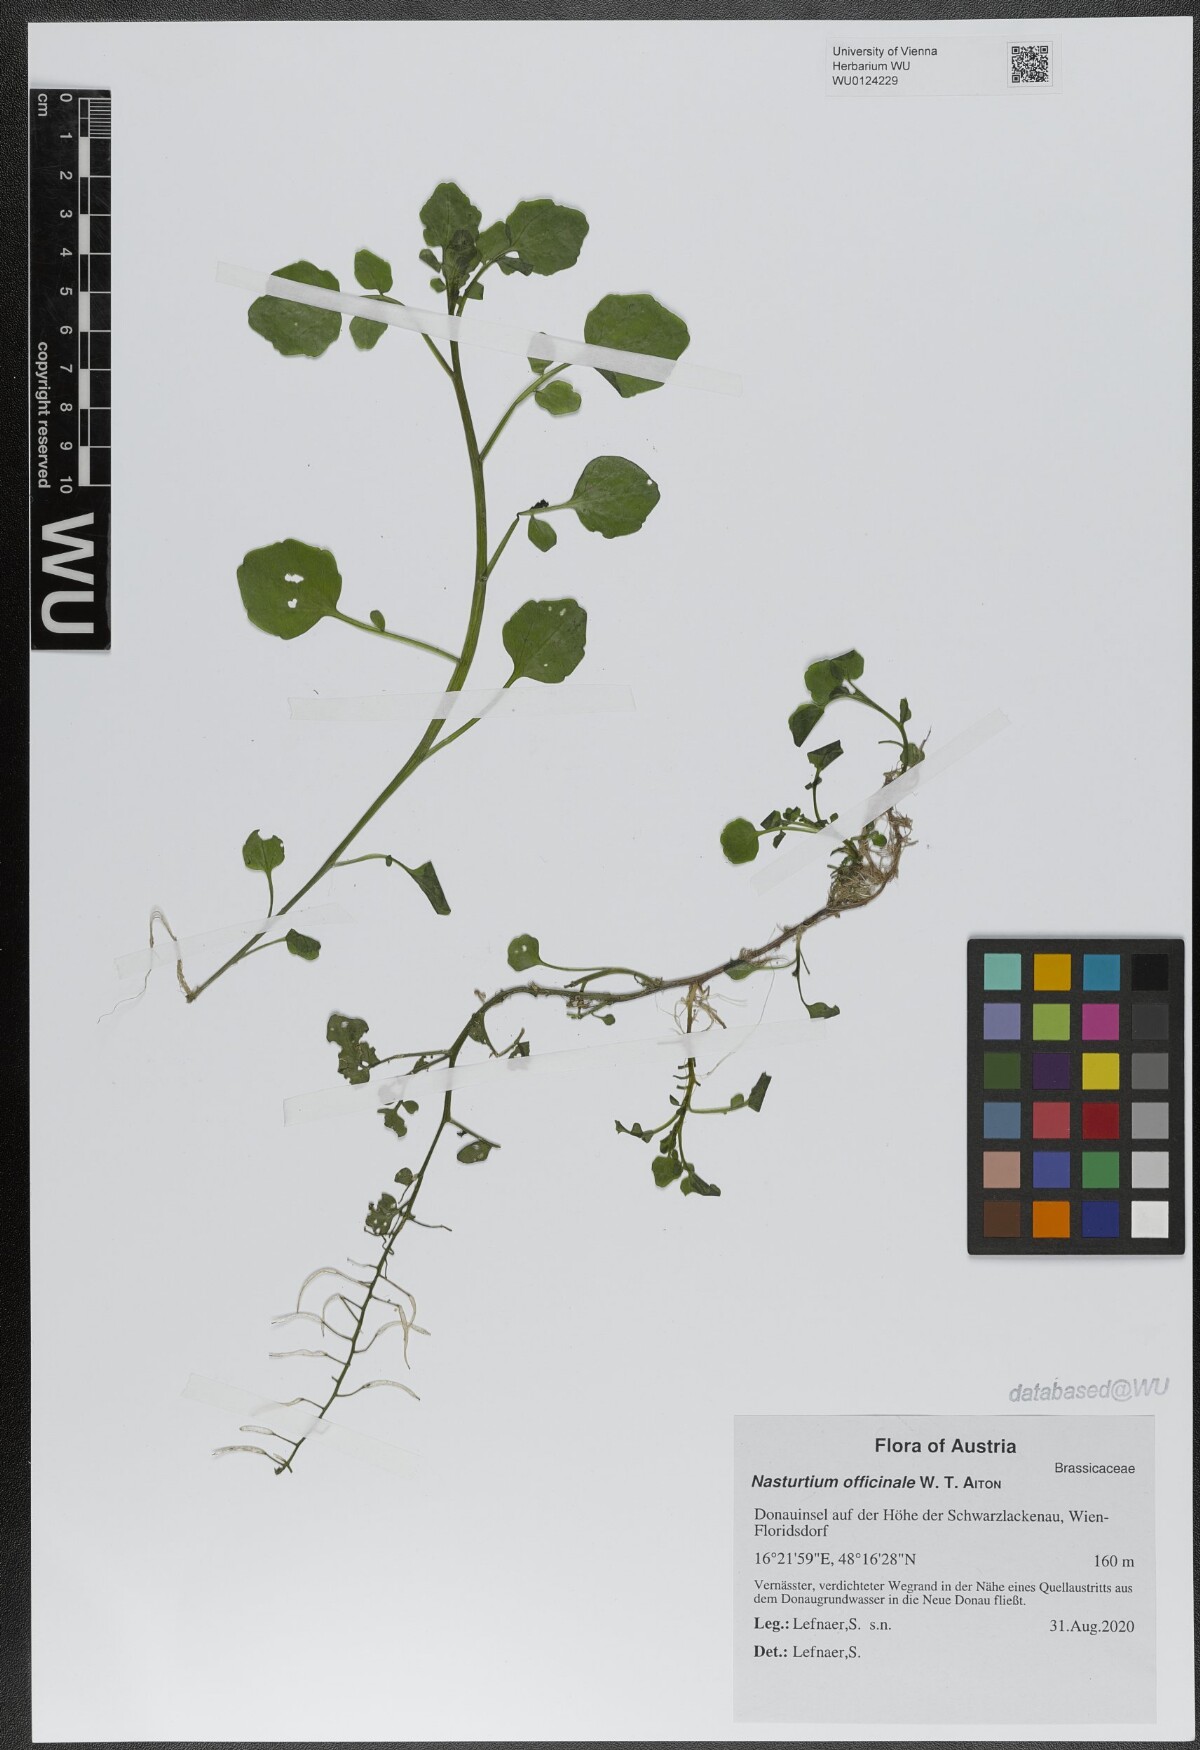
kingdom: Plantae
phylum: Tracheophyta
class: Magnoliopsida
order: Brassicales
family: Brassicaceae
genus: Nasturtium
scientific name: Nasturtium officinale
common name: Watercress
